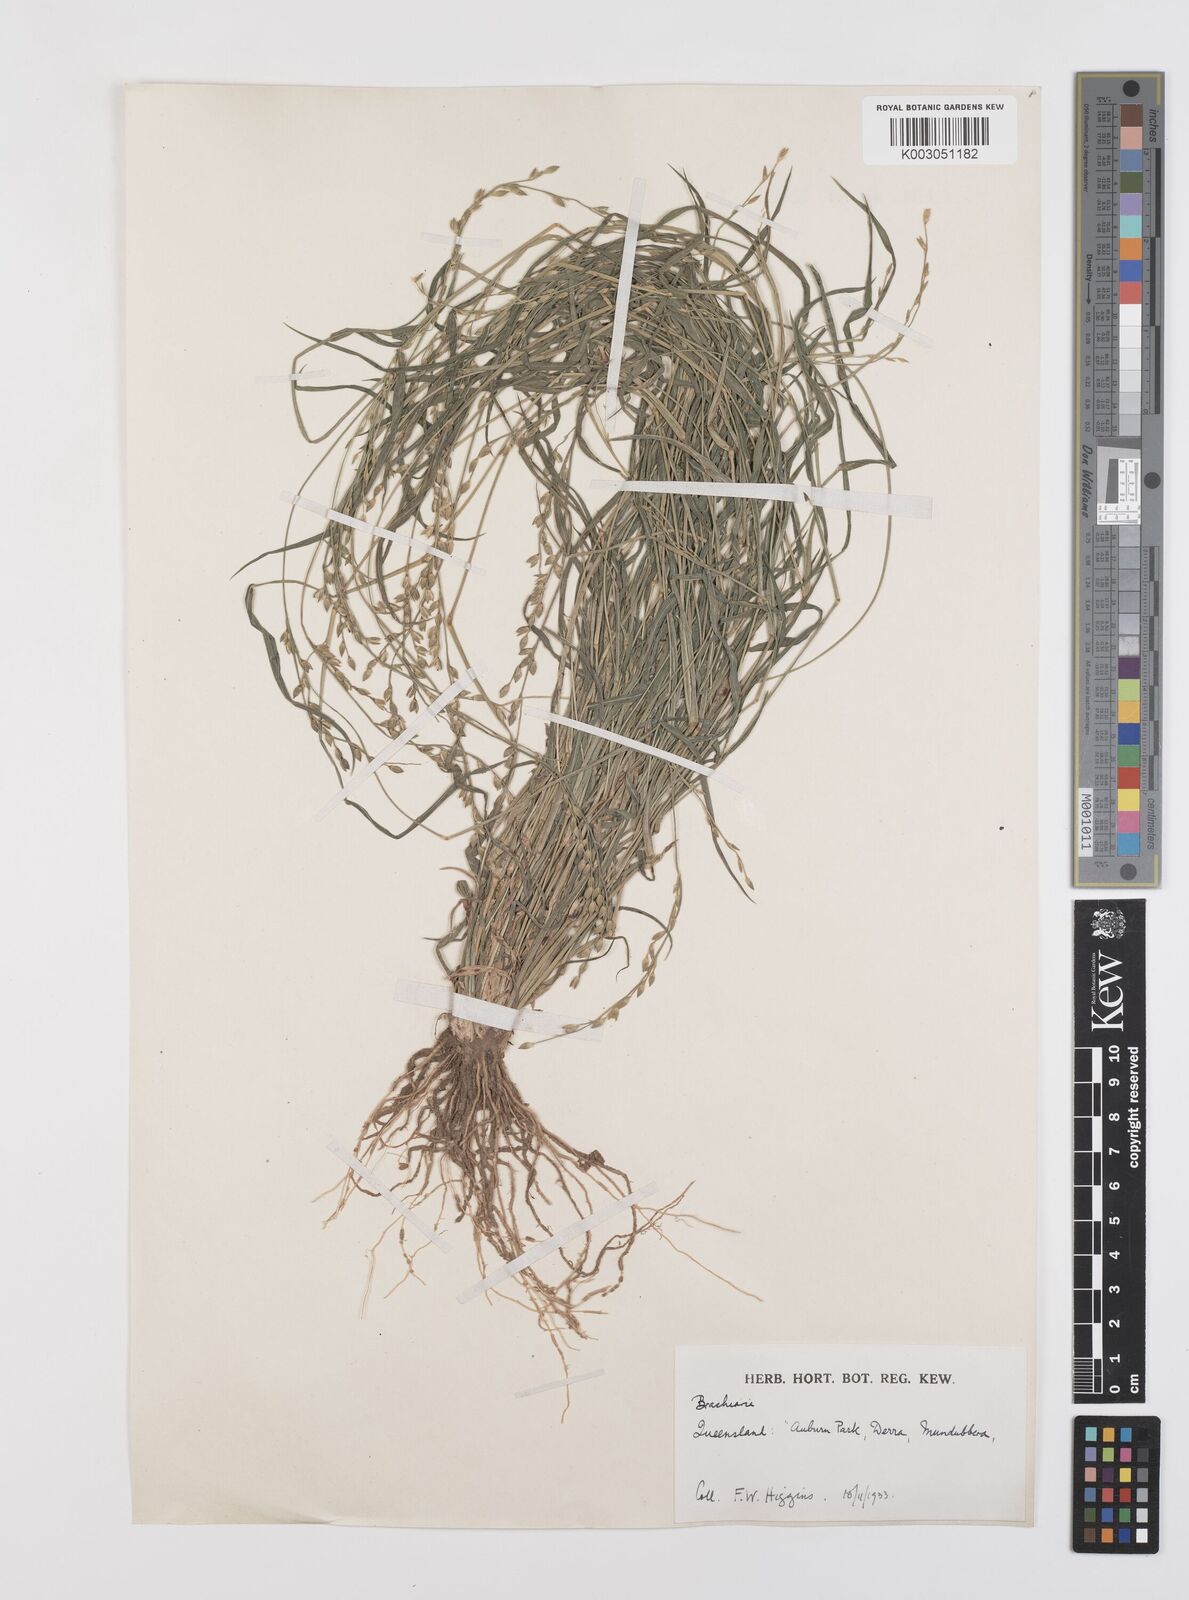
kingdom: Plantae
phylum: Tracheophyta
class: Liliopsida
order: Poales
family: Poaceae
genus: Urochloa
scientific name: Urochloa foliosa
